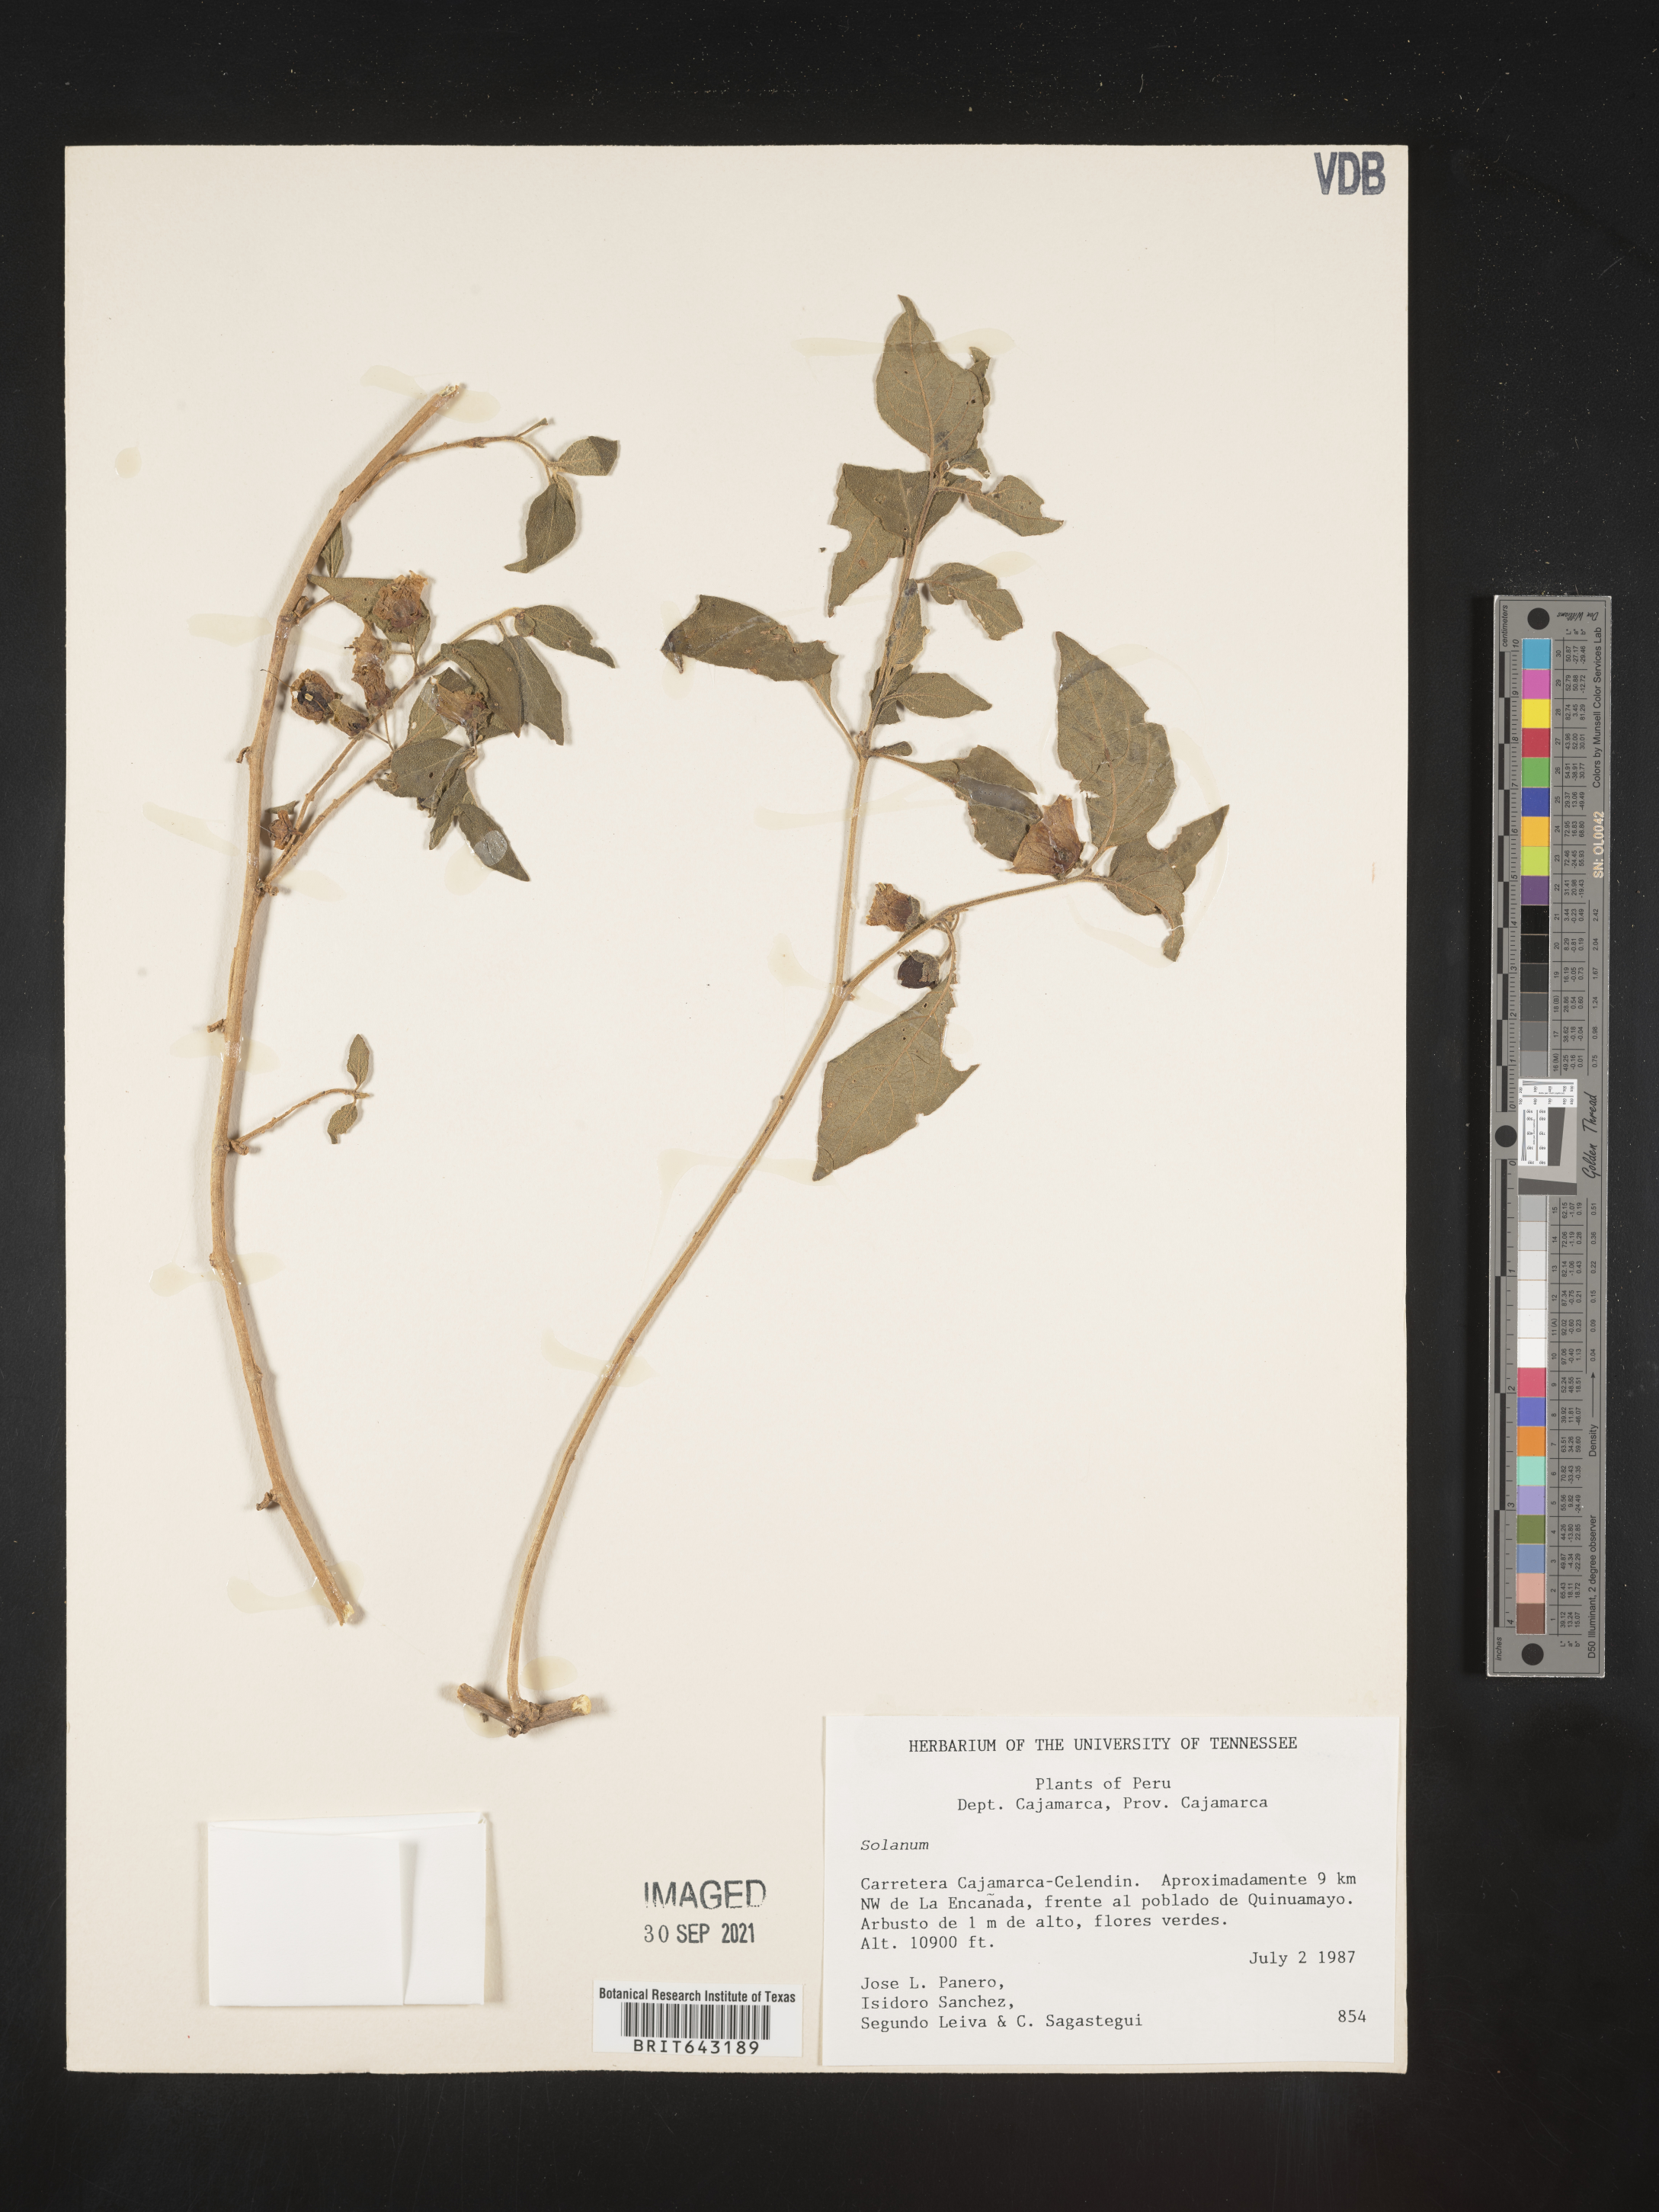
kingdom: Plantae
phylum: Tracheophyta
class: Magnoliopsida
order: Solanales
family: Solanaceae
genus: Solanum
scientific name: Solanum
